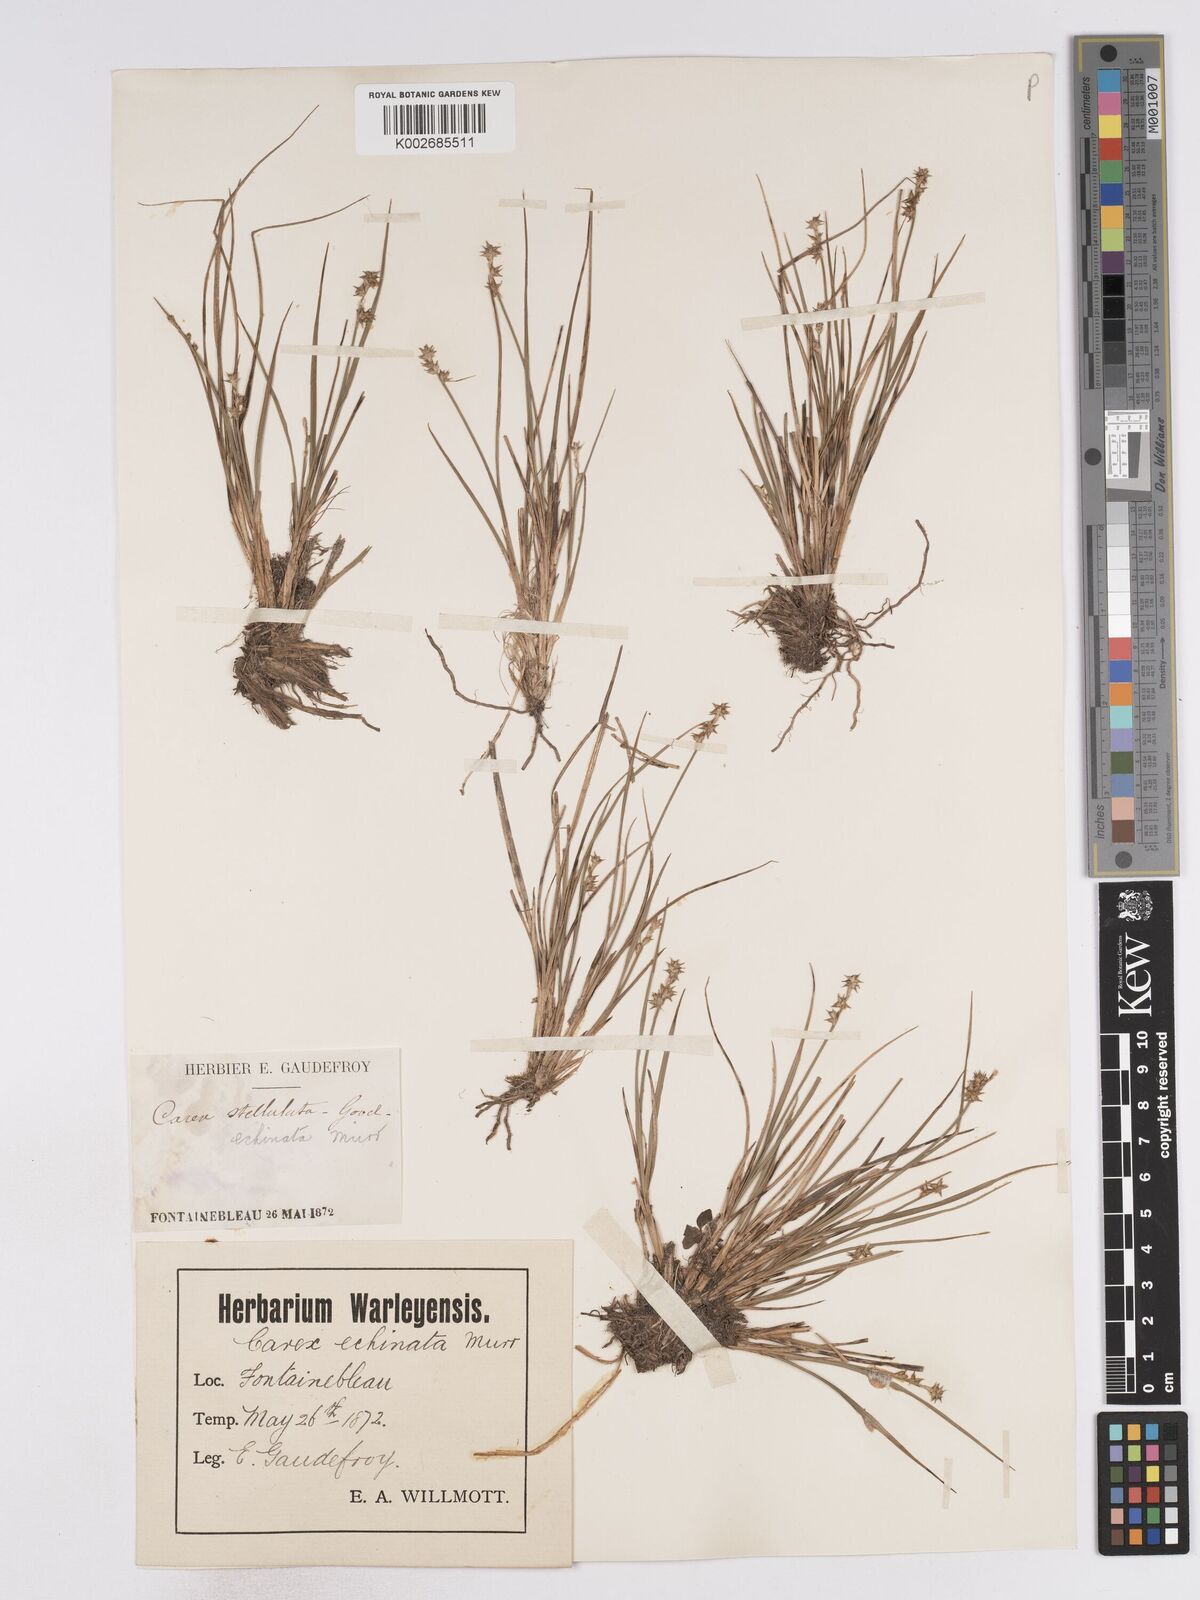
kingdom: Plantae
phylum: Tracheophyta
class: Liliopsida
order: Poales
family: Cyperaceae
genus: Carex
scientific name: Carex echinata
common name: Star sedge
